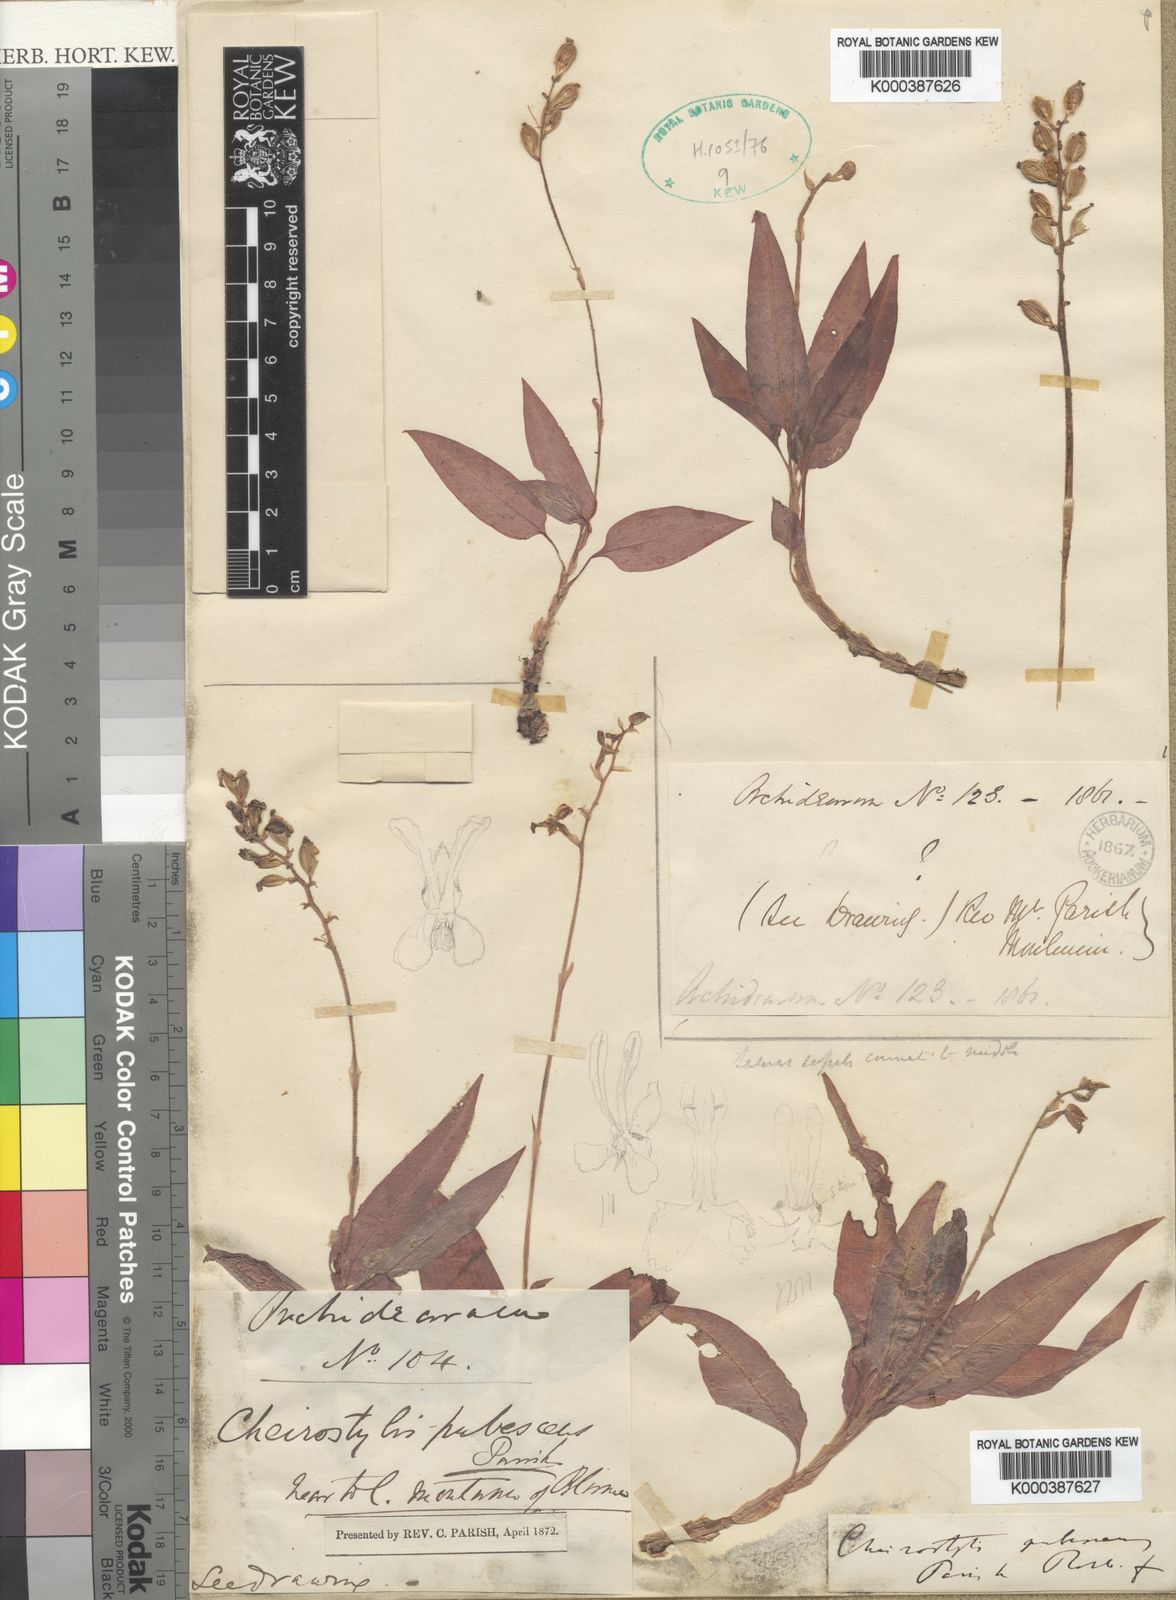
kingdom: Plantae
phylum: Tracheophyta
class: Liliopsida
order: Asparagales
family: Orchidaceae
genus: Cheirostylis
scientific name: Cheirostylis flabellata
